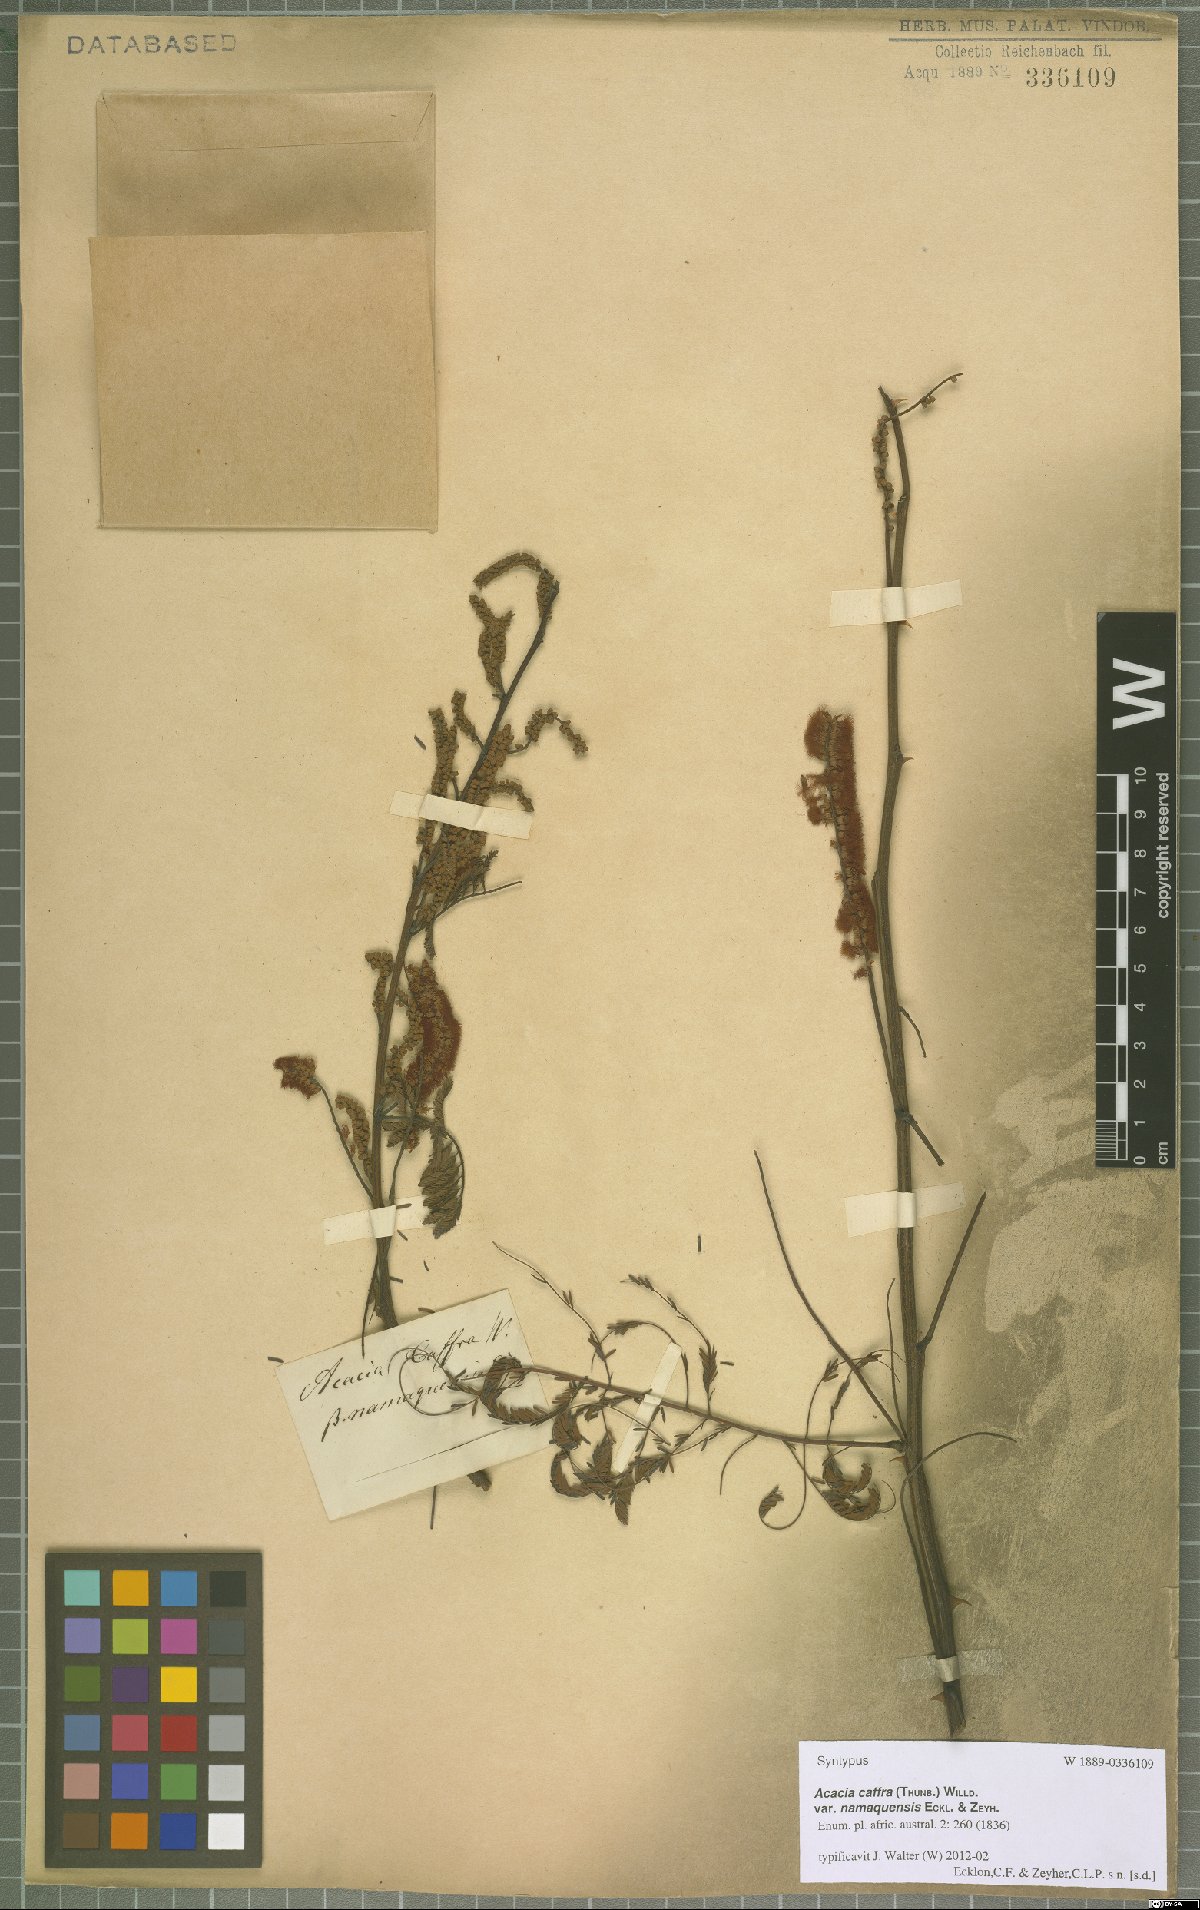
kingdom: Plantae
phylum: Tracheophyta
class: Magnoliopsida
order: Fabales
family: Fabaceae
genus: Senegalia
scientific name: Senegalia caffra
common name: Cat thorn
